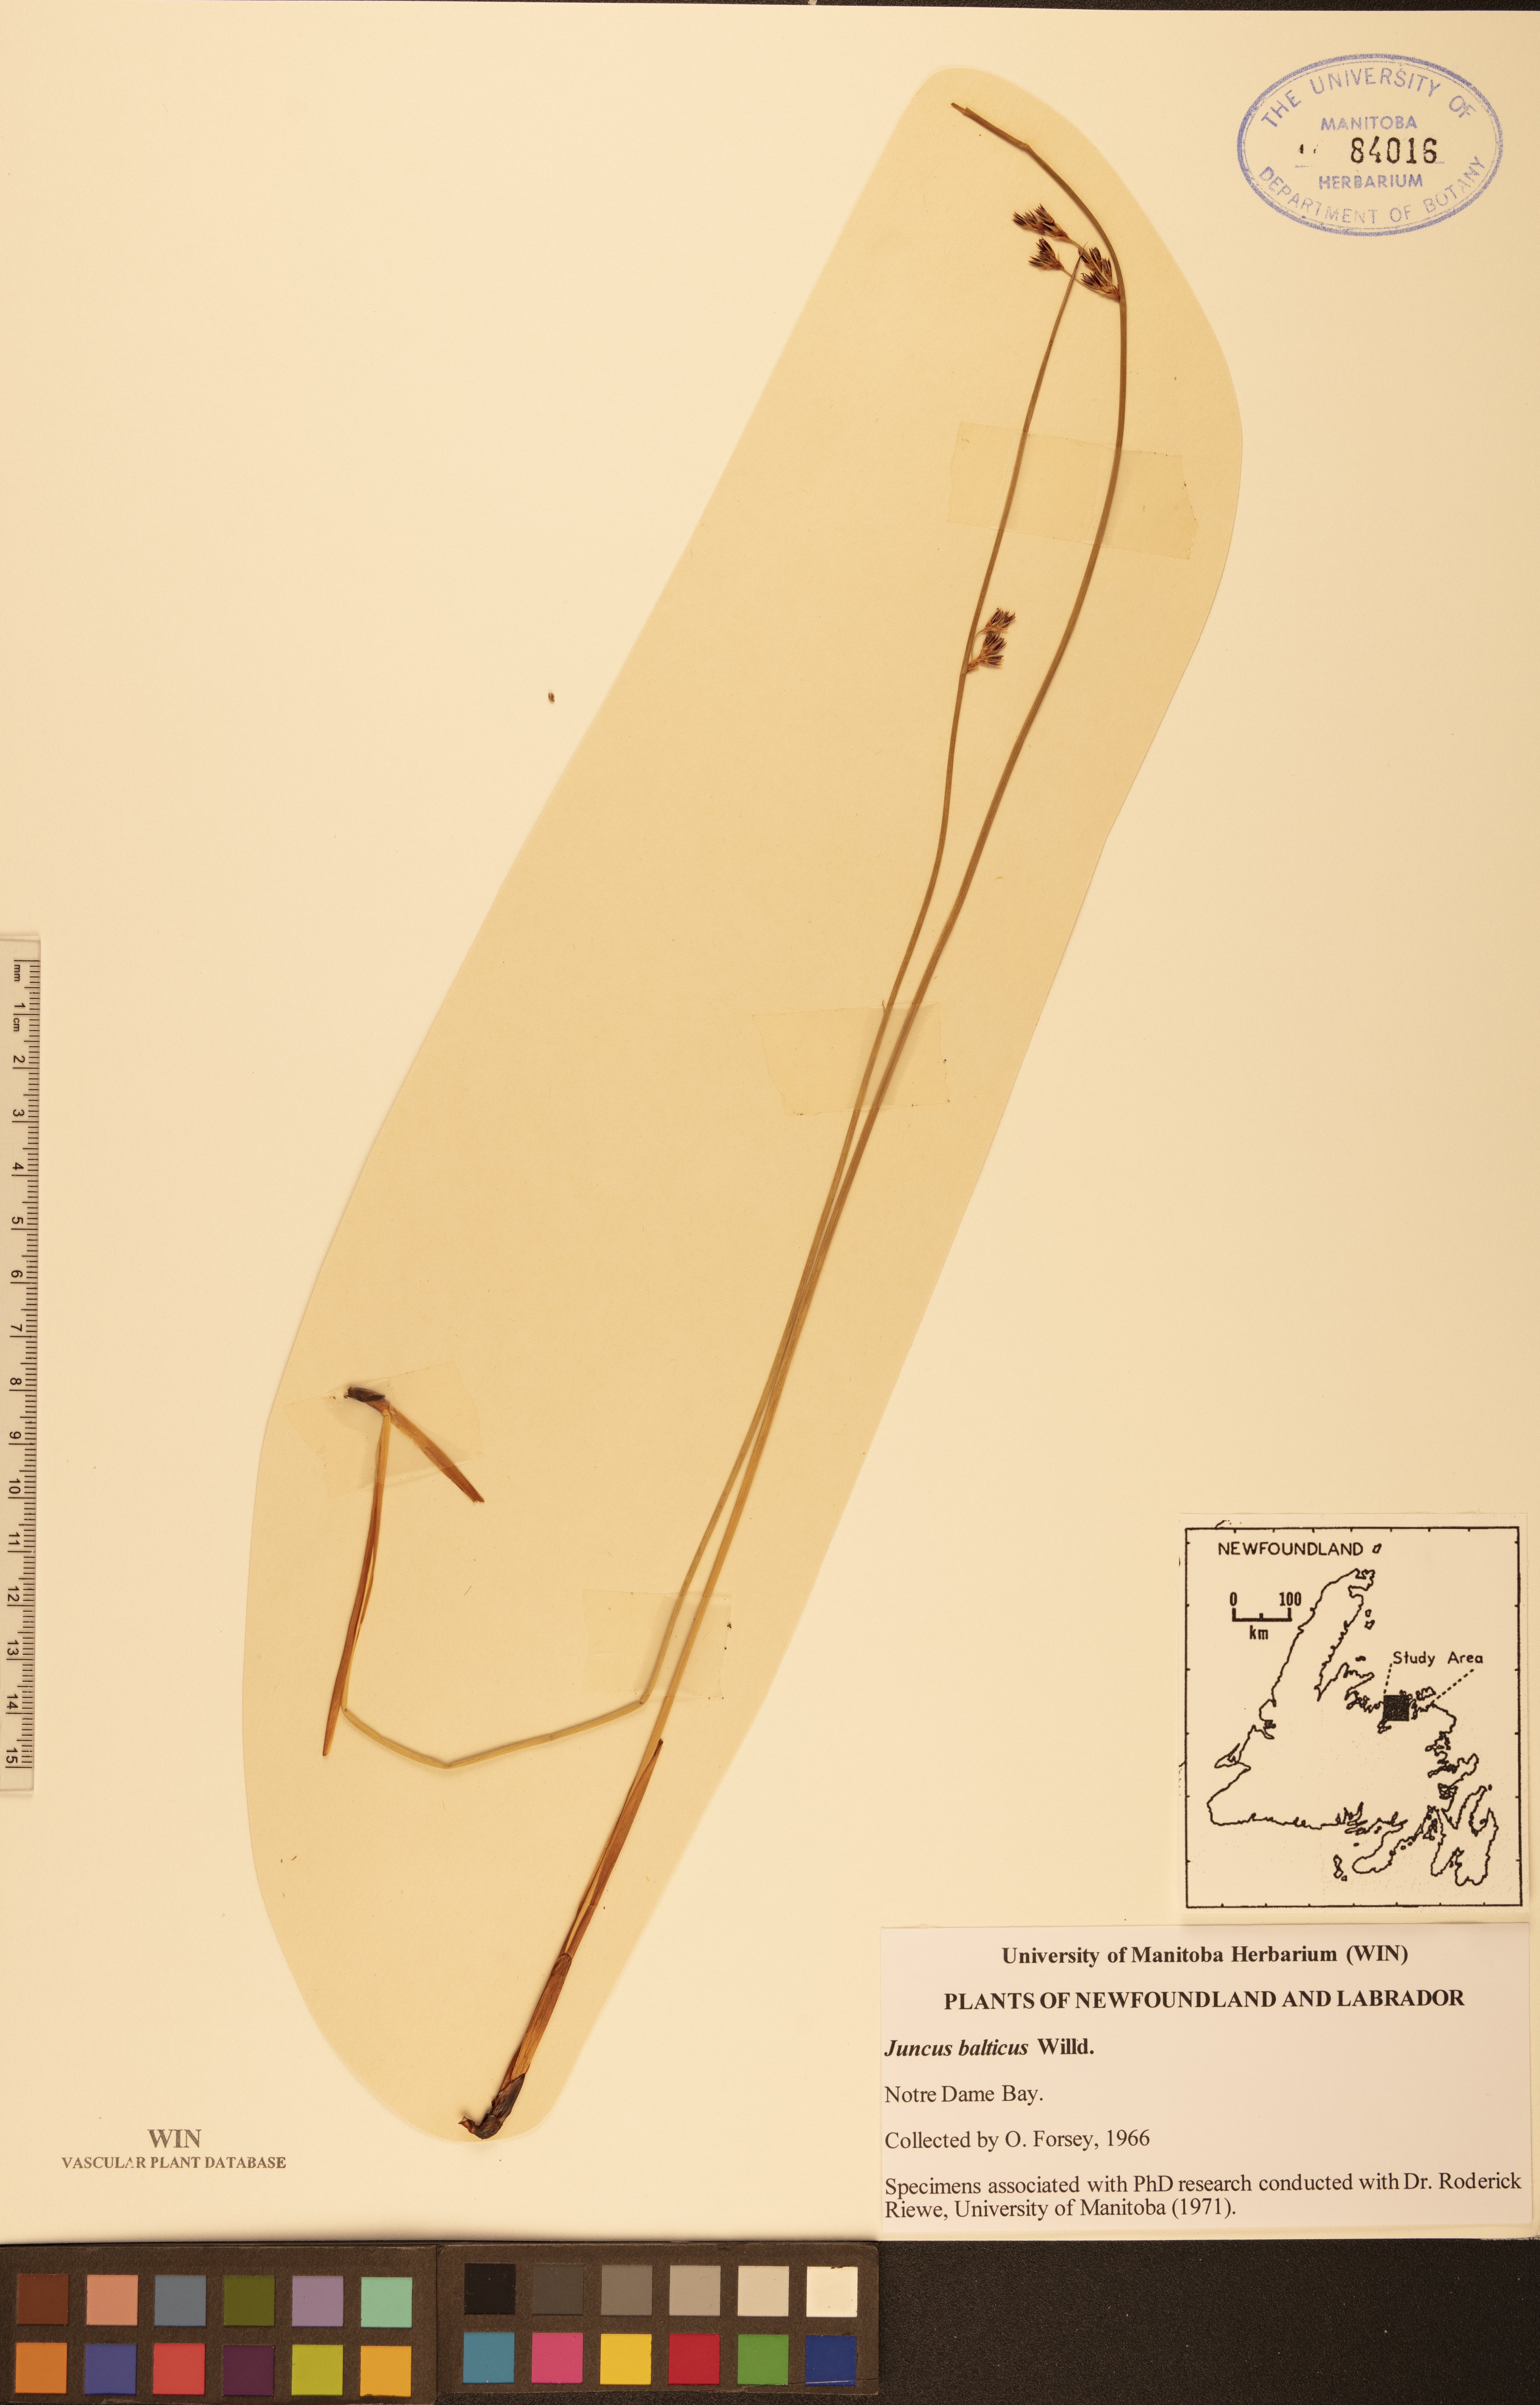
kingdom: Plantae
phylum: Tracheophyta
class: Liliopsida
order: Poales
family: Juncaceae
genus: Juncus
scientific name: Juncus balticus
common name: Baltic rush
